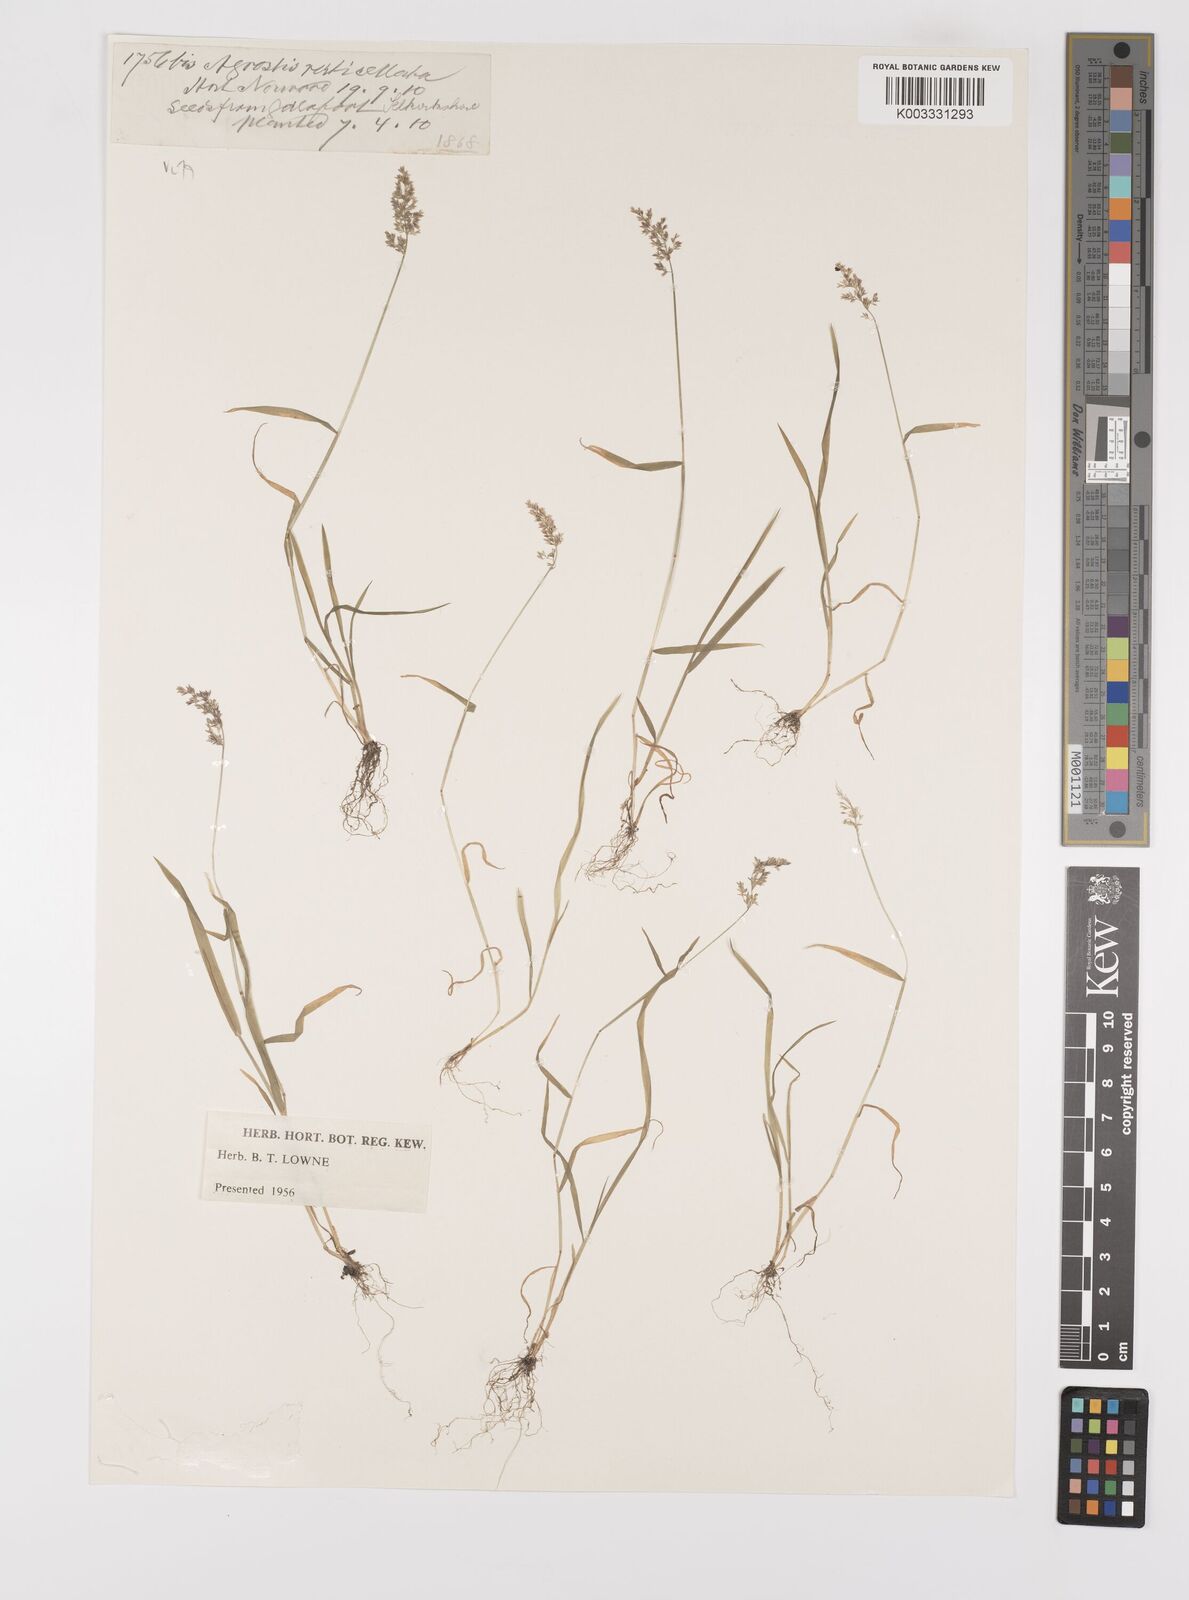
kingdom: Plantae
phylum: Tracheophyta
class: Liliopsida
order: Poales
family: Poaceae
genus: Polypogon
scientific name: Polypogon viridis
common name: Water bent
